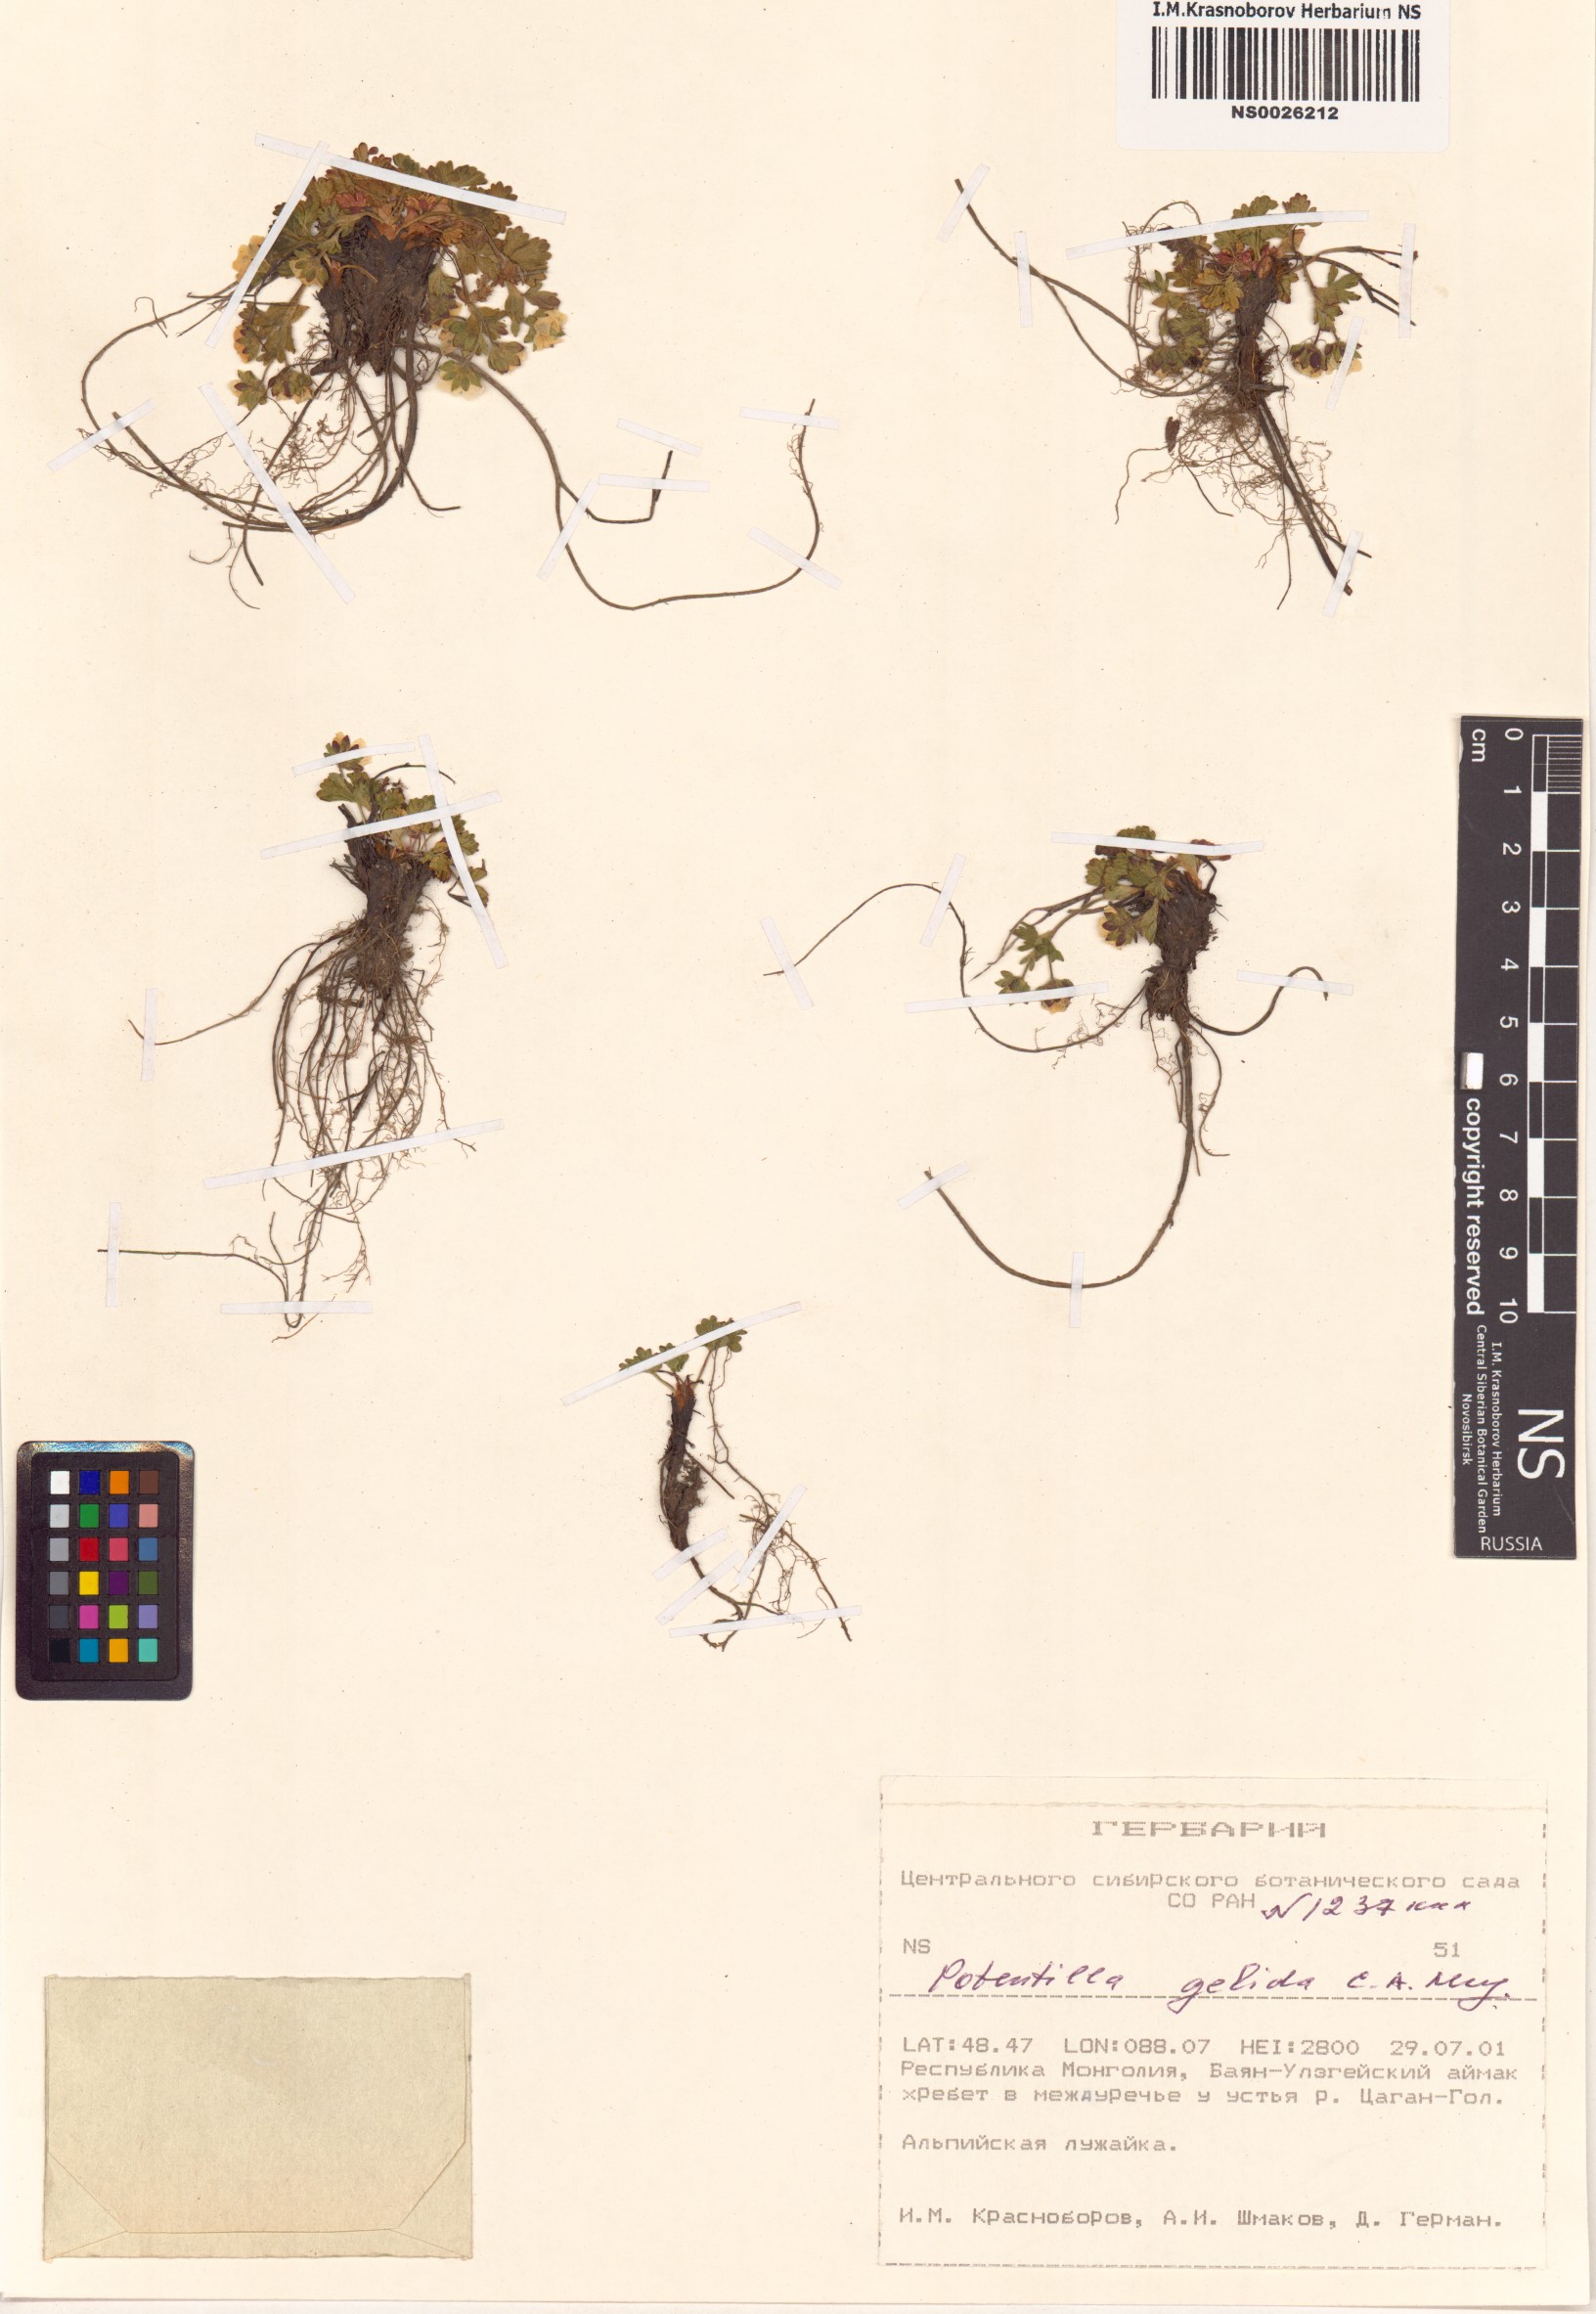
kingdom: Plantae
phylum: Tracheophyta
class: Magnoliopsida
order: Rosales
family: Rosaceae
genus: Potentilla
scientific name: Potentilla crantzii
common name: Alpine cinquefoil
